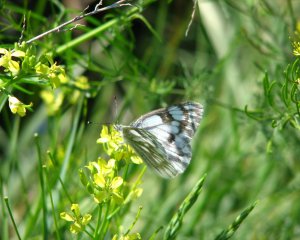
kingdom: Animalia
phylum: Arthropoda
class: Insecta
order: Lepidoptera
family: Pieridae
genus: Pontia
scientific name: Pontia occidentalis
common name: Western White
